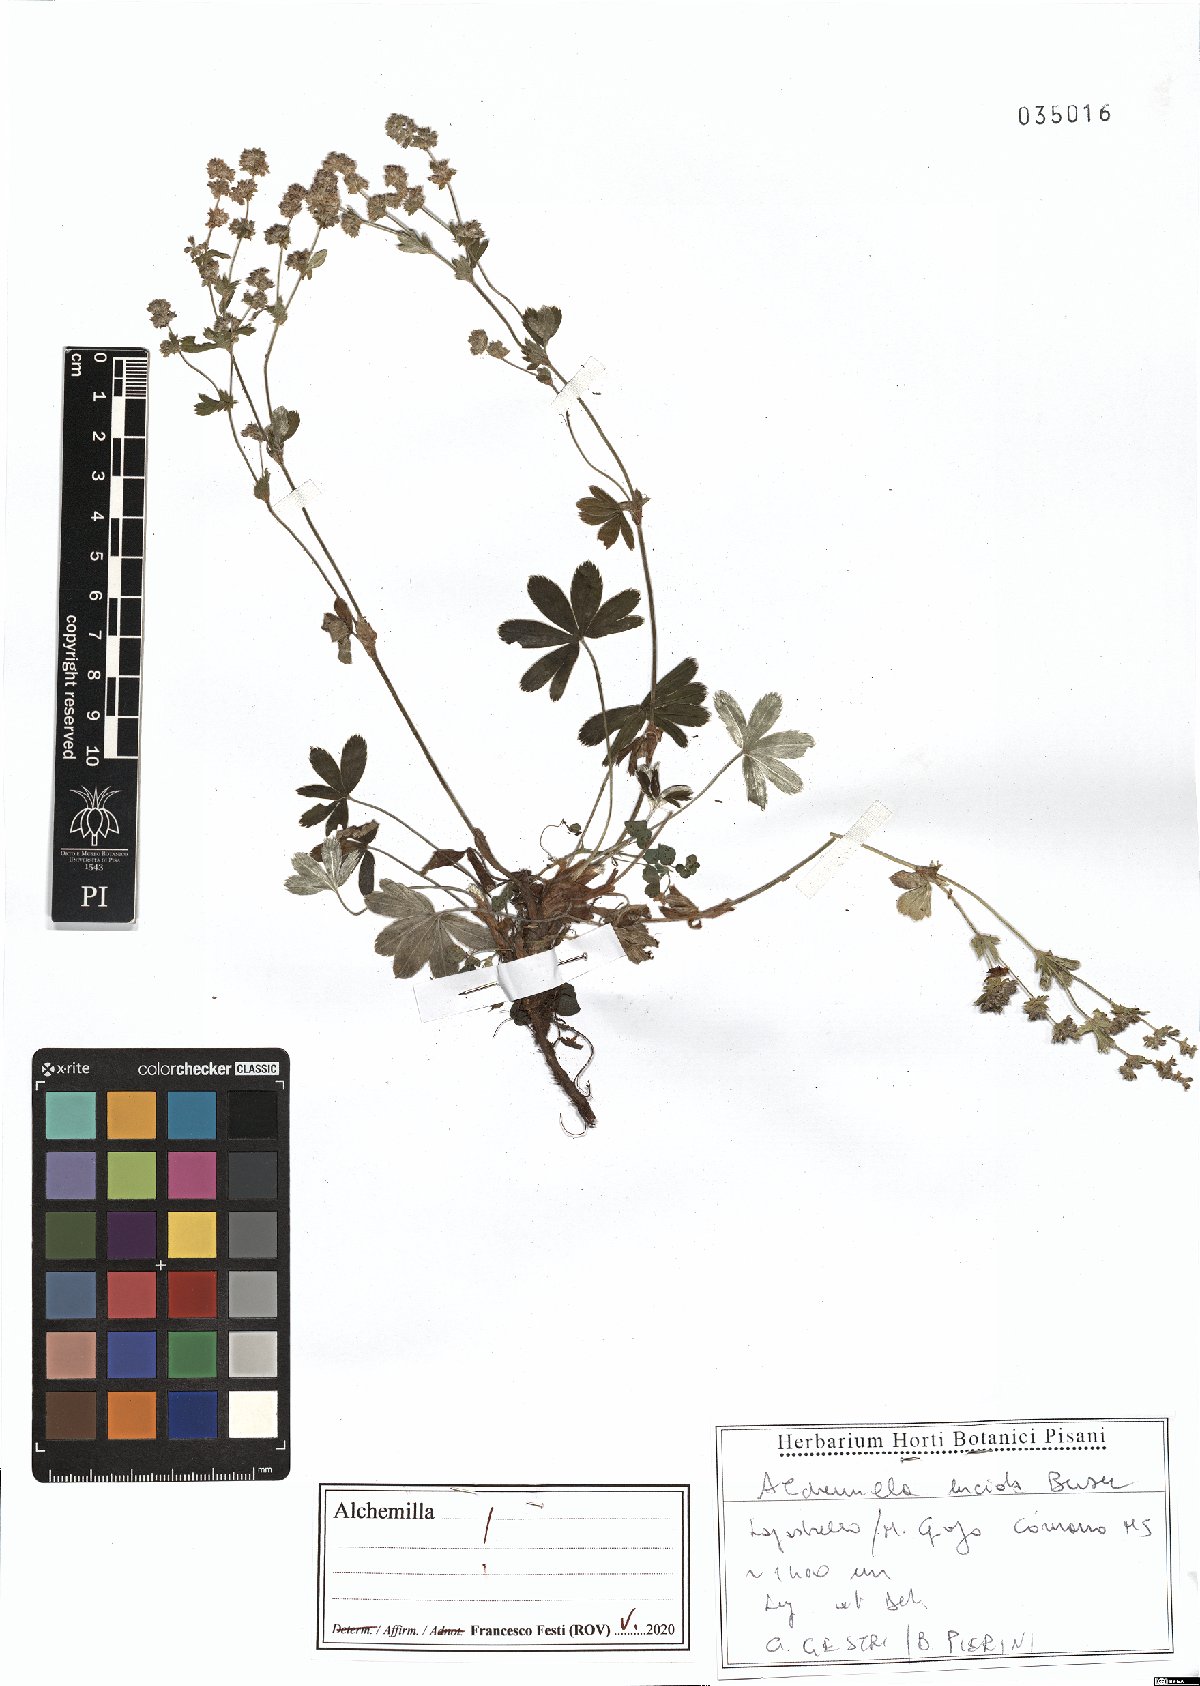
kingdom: Plantae
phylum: Tracheophyta
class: Magnoliopsida
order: Rosales
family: Rosaceae
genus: Alchemilla
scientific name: Alchemilla lucida
